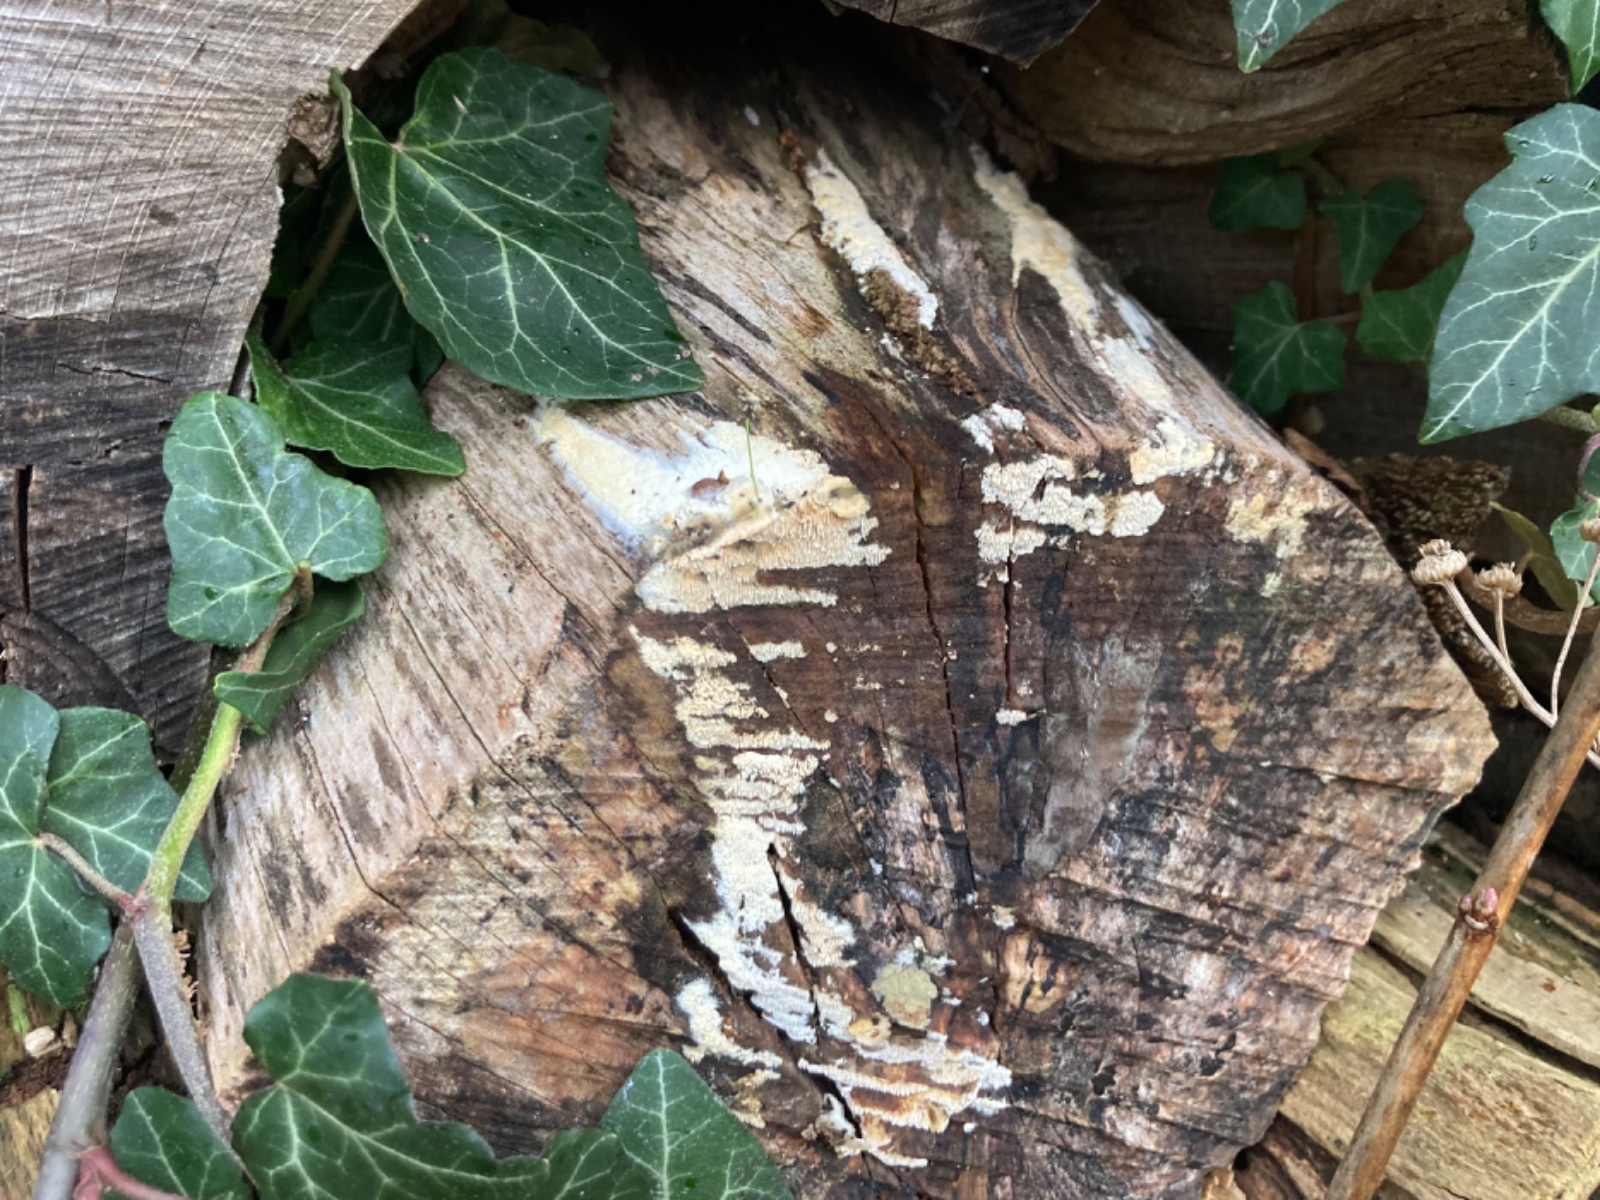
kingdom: Fungi
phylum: Basidiomycota
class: Agaricomycetes
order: Hymenochaetales
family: Schizoporaceae
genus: Schizopora
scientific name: Schizopora paradoxa
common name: hvid tandsvamp
